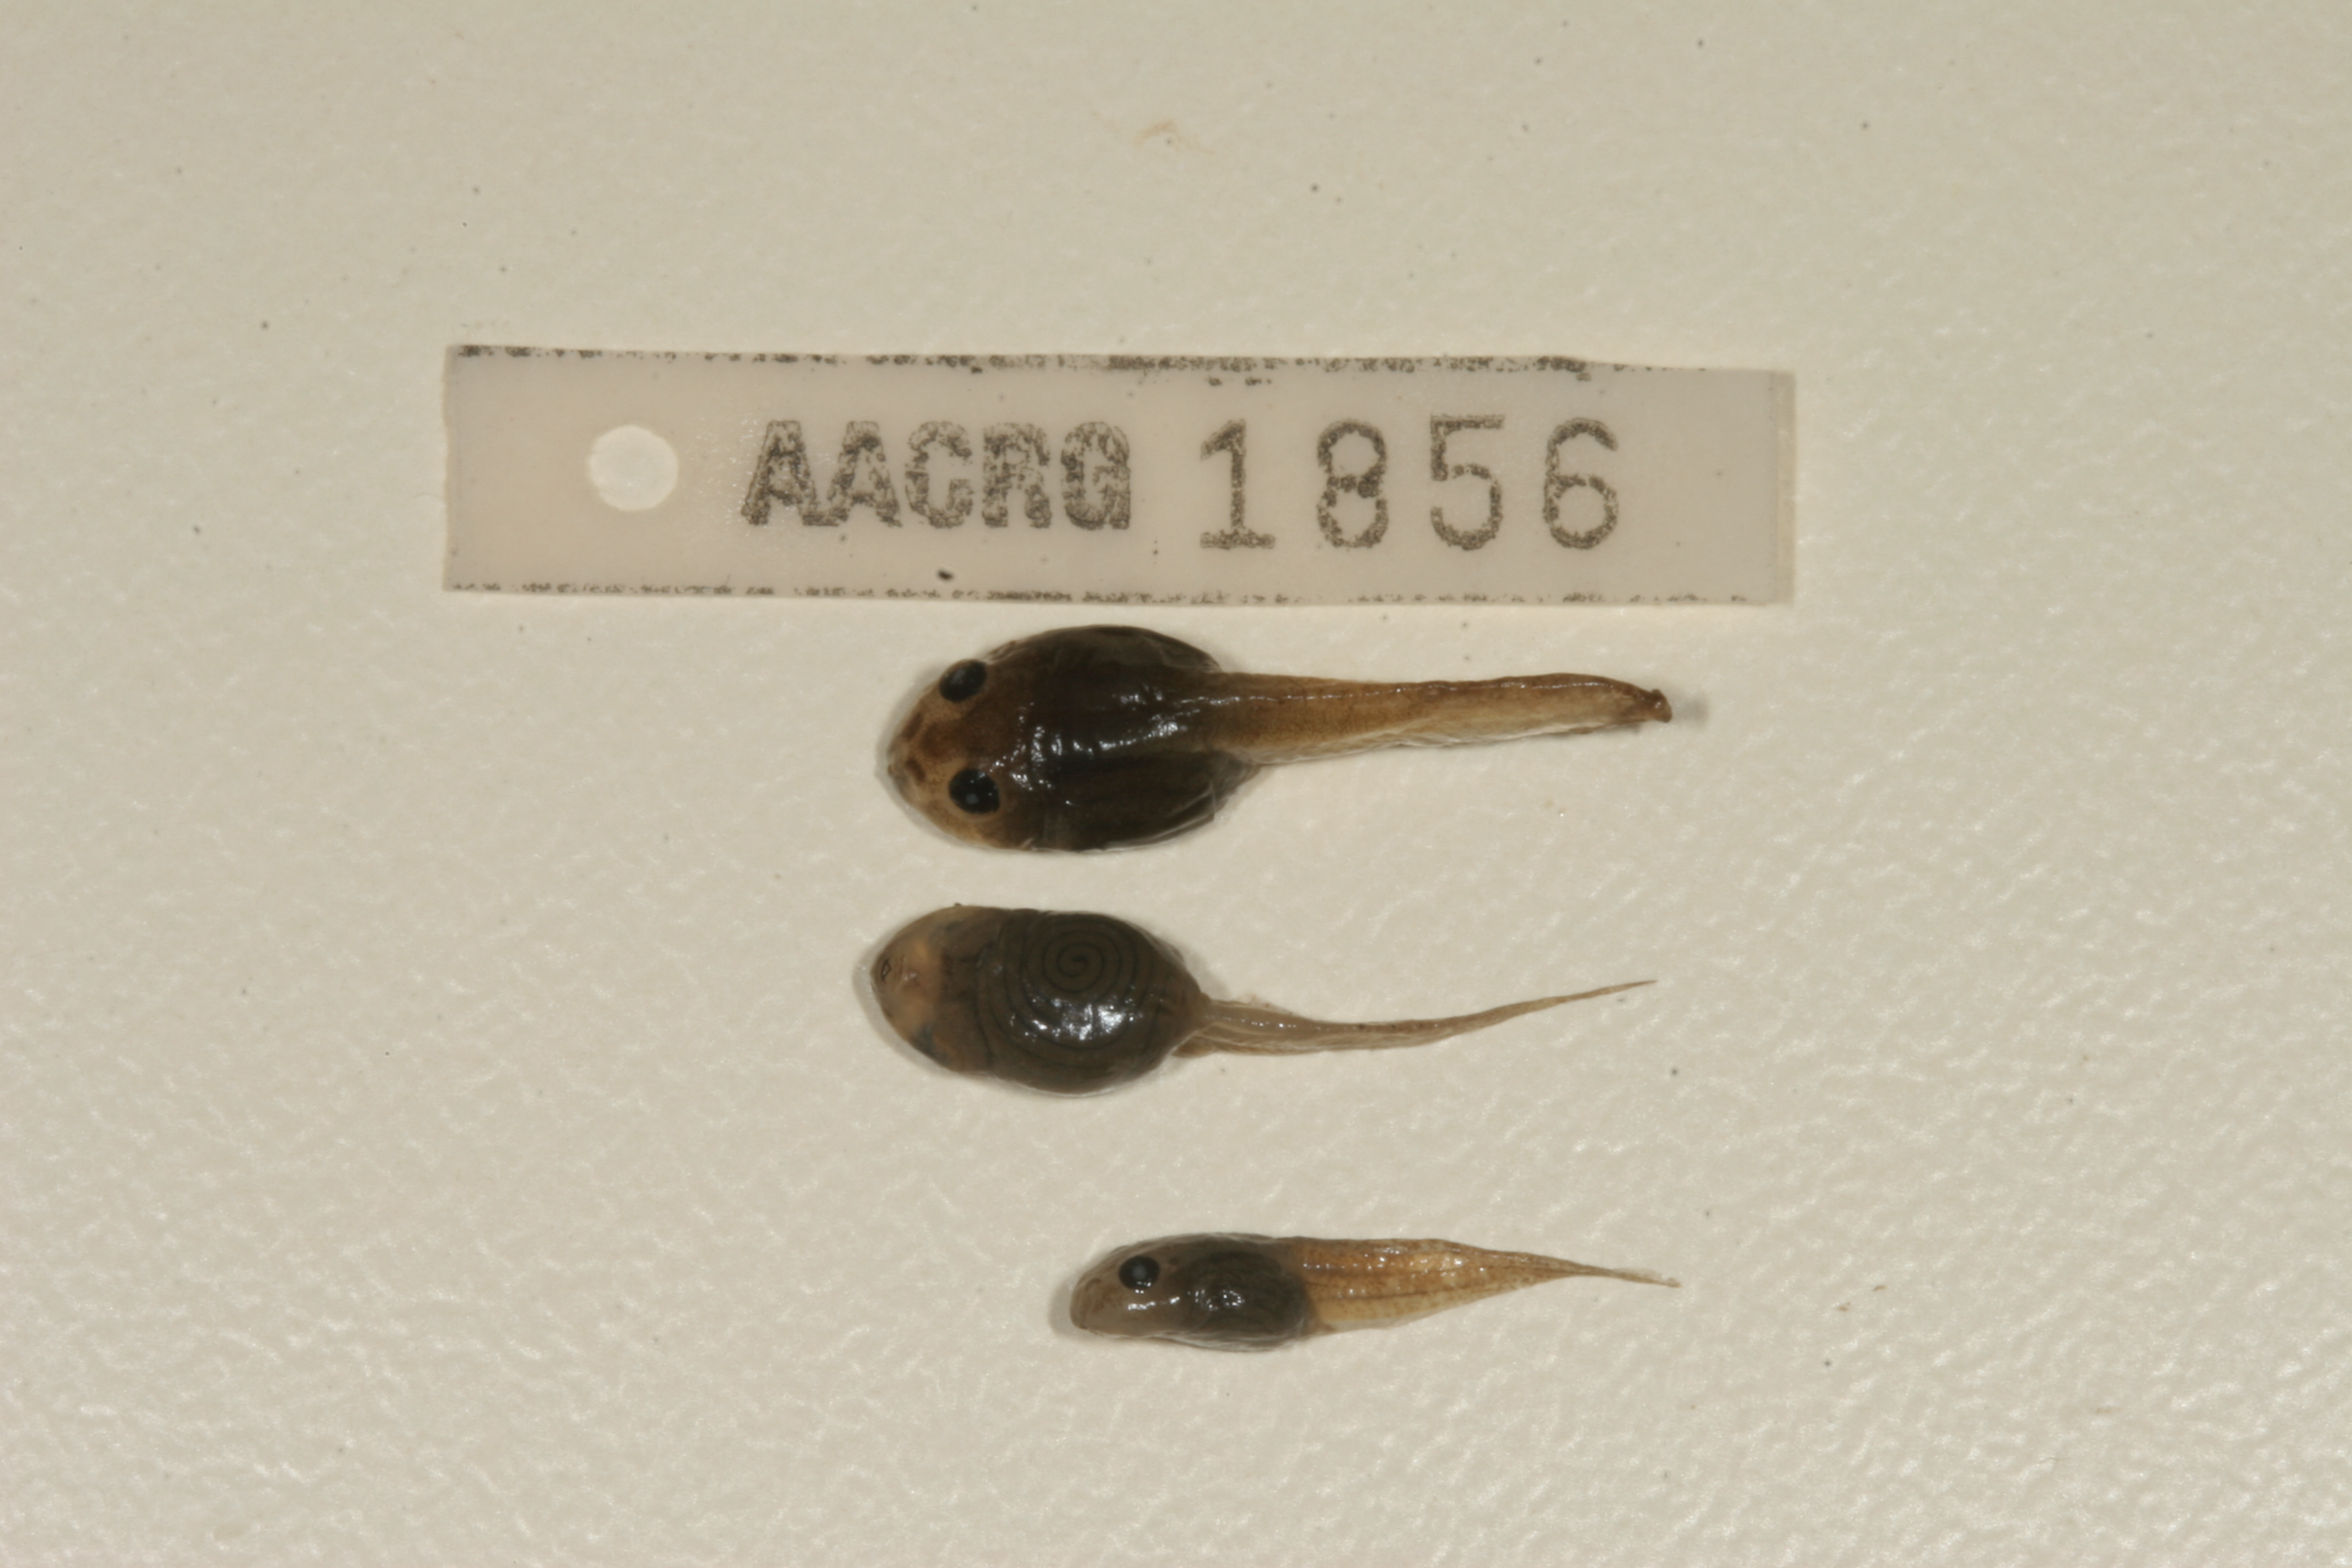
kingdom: Animalia
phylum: Chordata
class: Amphibia
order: Anura
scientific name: Anura
